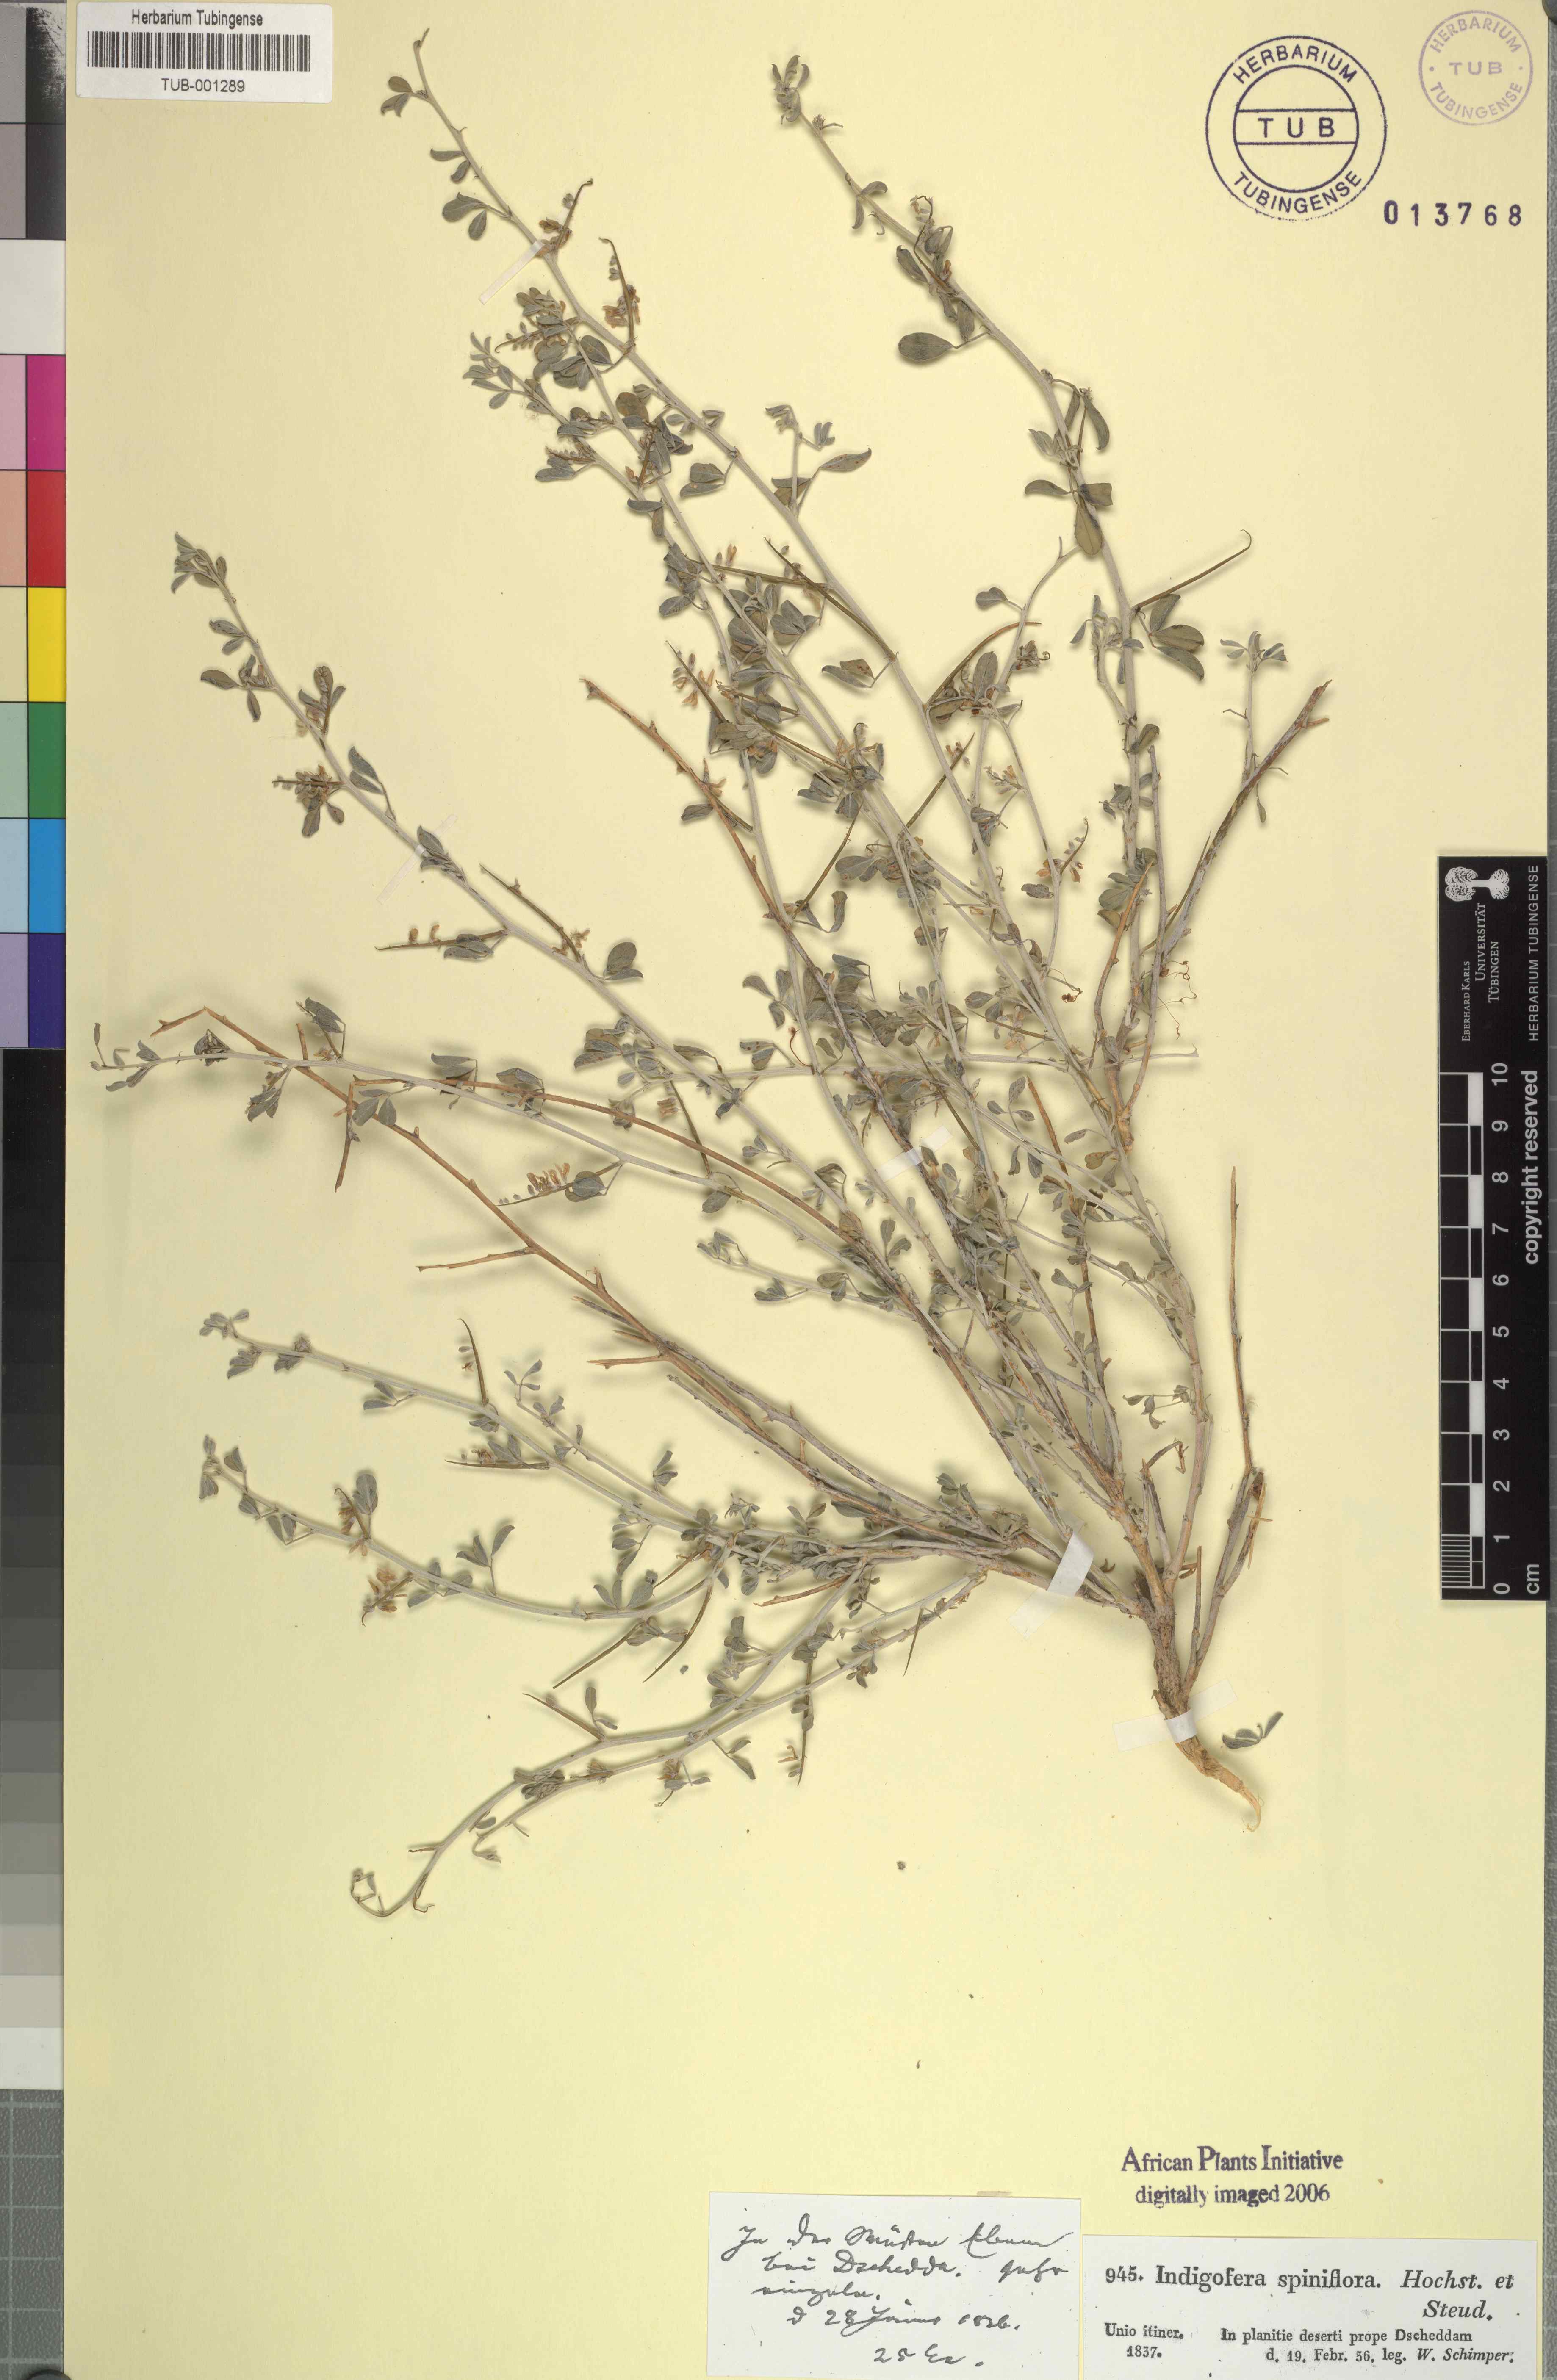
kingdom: Plantae
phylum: Tracheophyta
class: Magnoliopsida
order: Fabales
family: Fabaceae
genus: Indigofera
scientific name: Indigofera spiniflora
